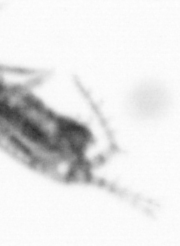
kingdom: Animalia
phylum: Arthropoda
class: Copepoda
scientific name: Copepoda
